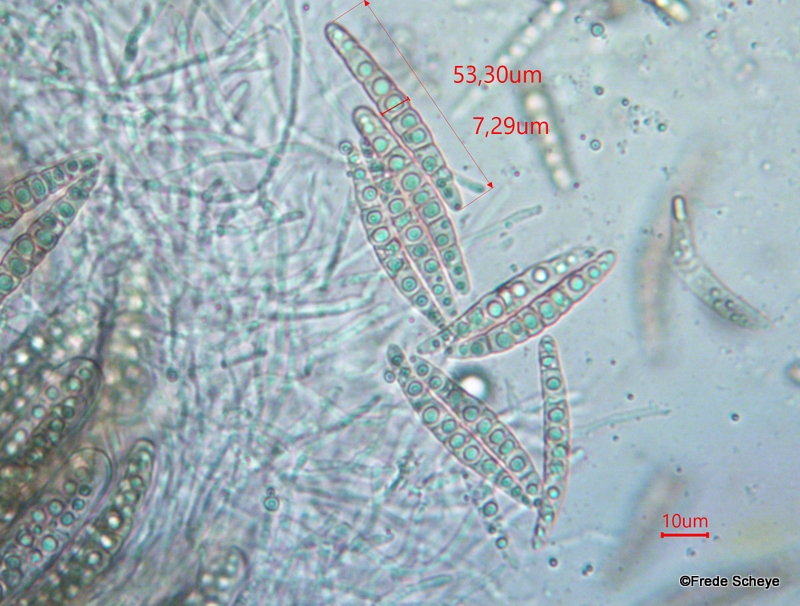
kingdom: Fungi
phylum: Ascomycota
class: Dothideomycetes
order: Pleosporales
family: Leptosphaeriaceae
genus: Leptosphaeria
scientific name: Leptosphaeria acuta
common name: spids kulkegle
